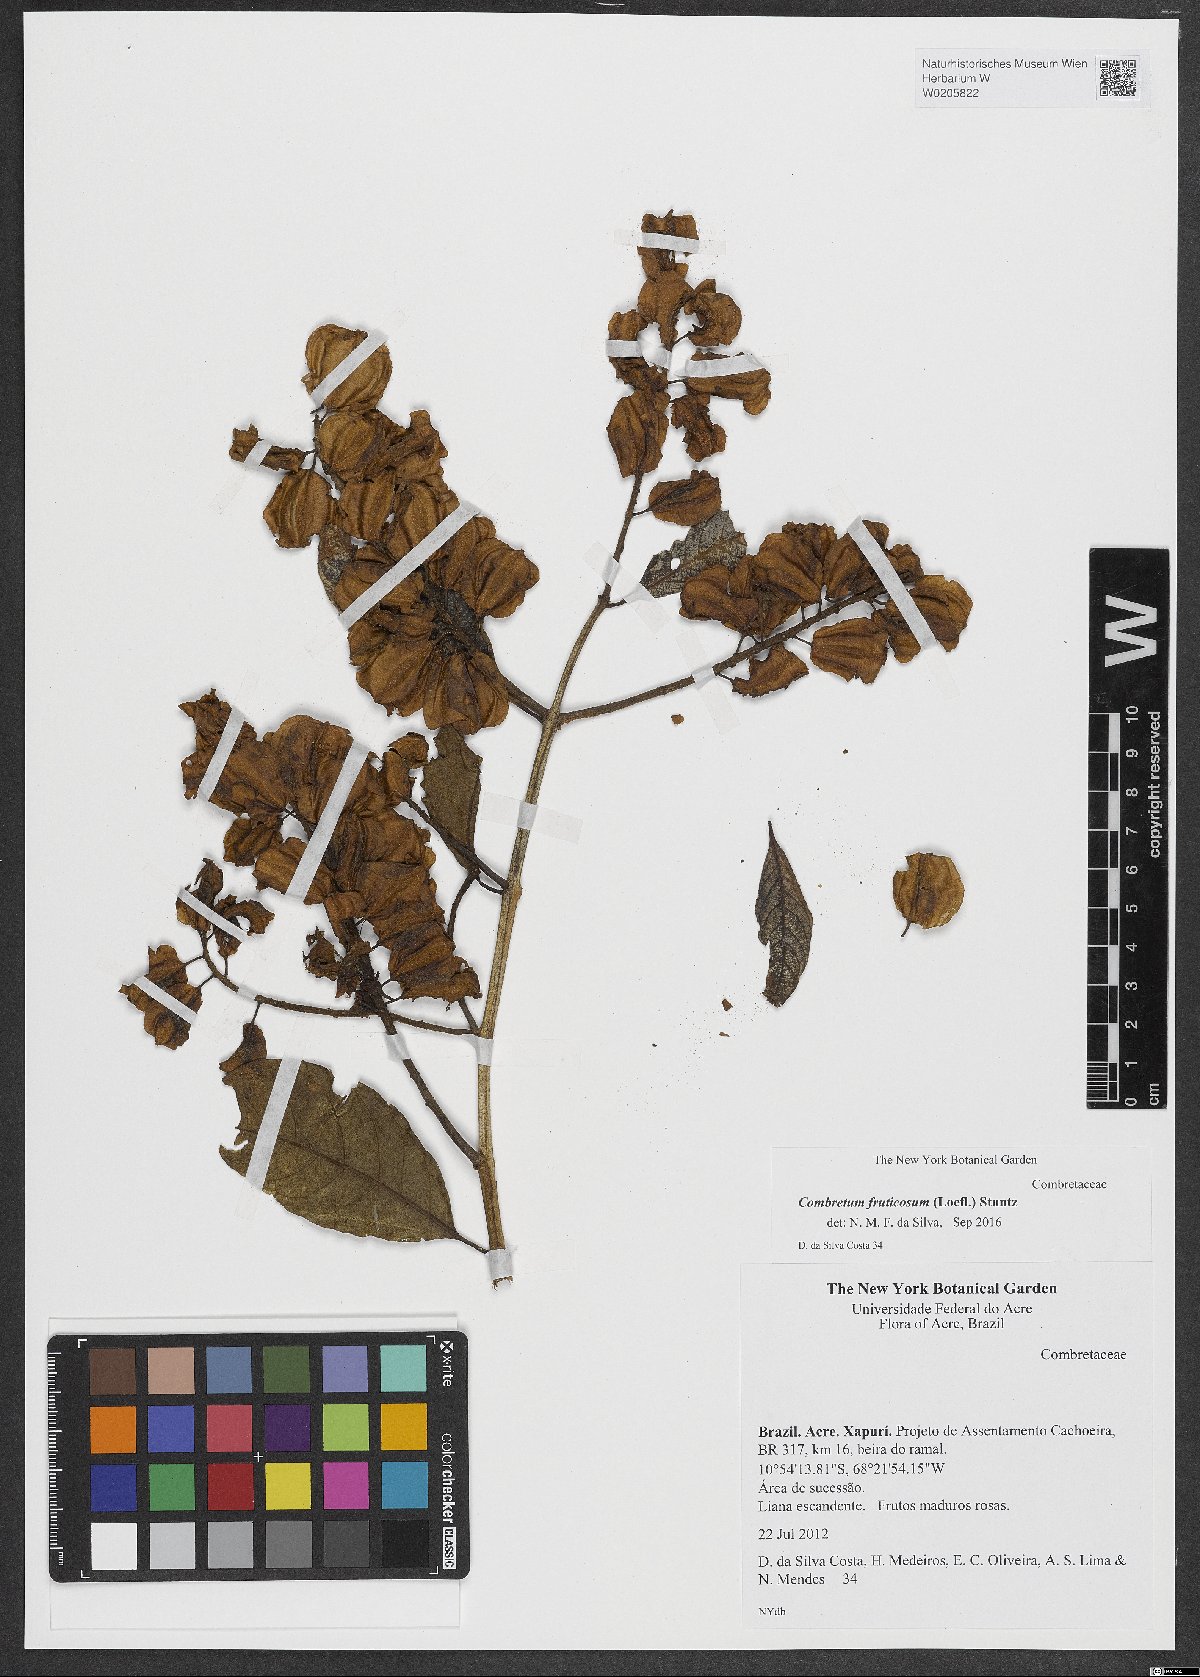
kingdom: Plantae
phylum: Tracheophyta
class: Magnoliopsida
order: Myrtales
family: Combretaceae
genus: Combretum
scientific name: Combretum fruticosum
